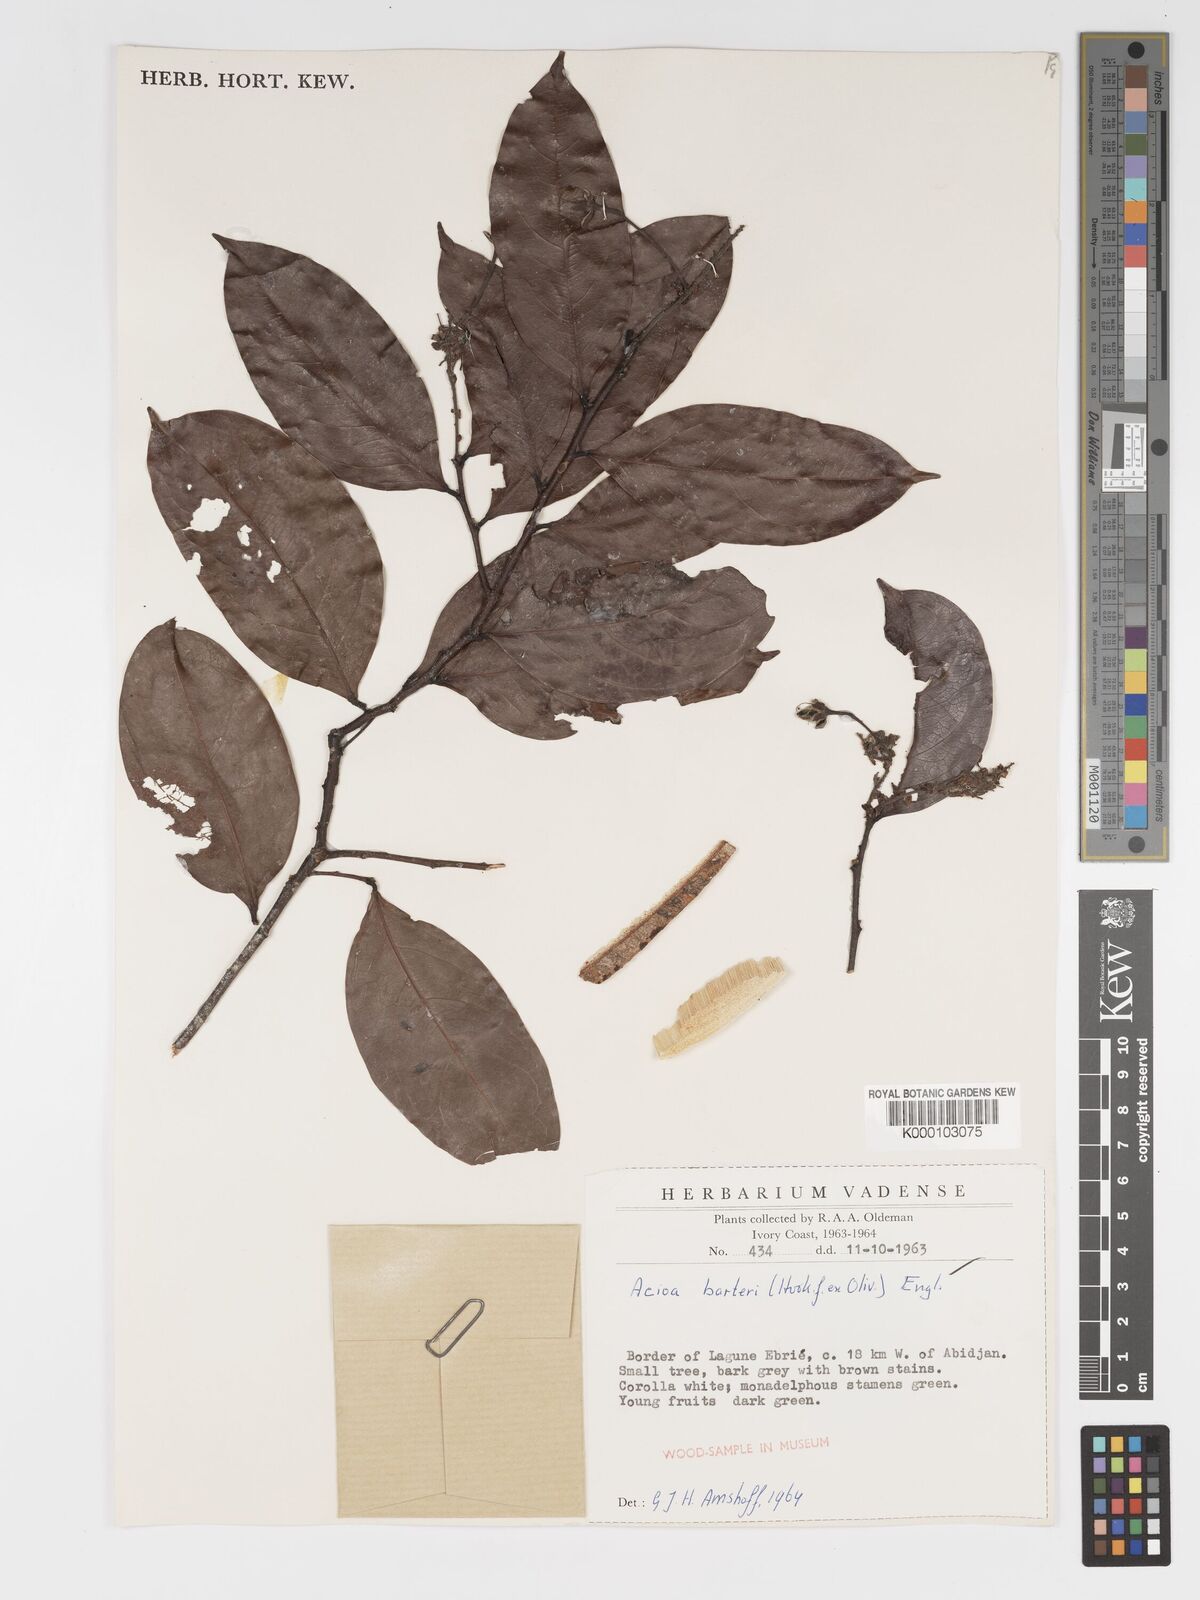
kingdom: Plantae
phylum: Tracheophyta
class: Magnoliopsida
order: Malpighiales
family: Chrysobalanaceae
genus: Dactyladenia
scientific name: Dactyladenia barteri
